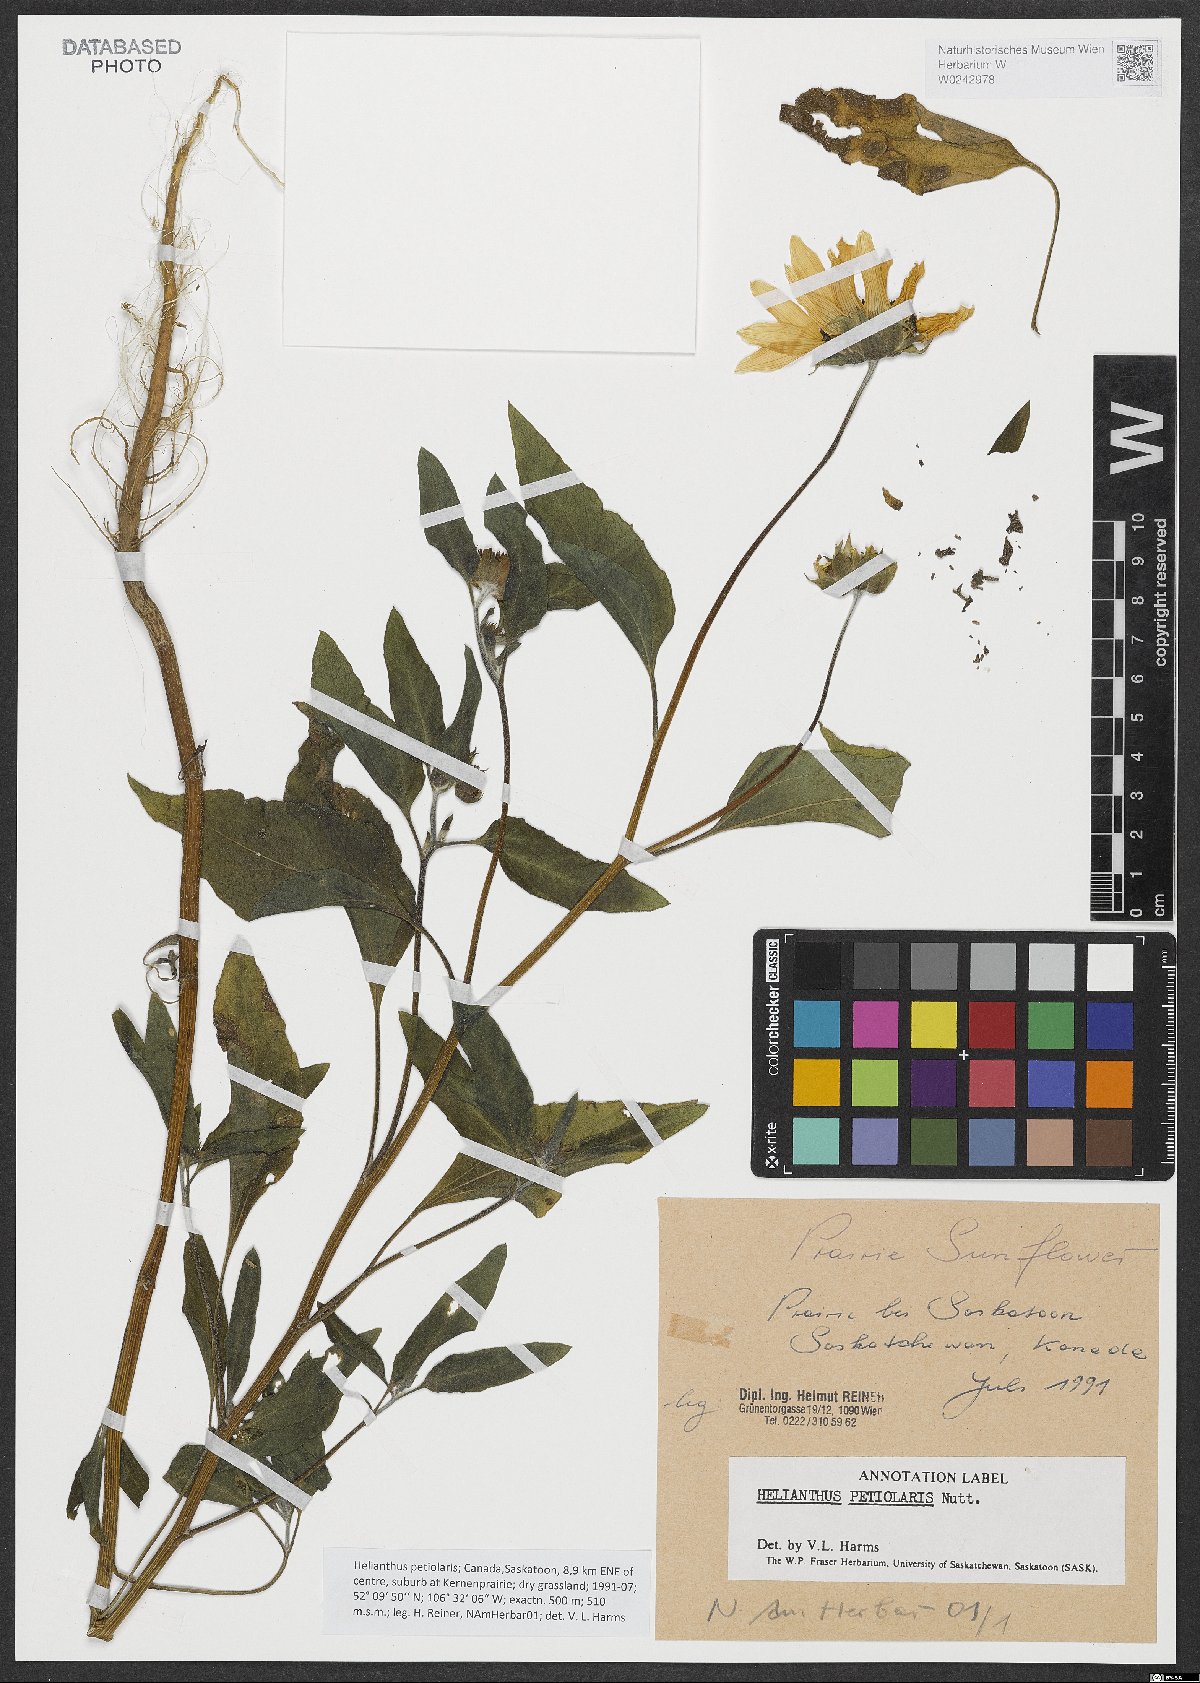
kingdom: Plantae
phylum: Tracheophyta
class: Magnoliopsida
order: Asterales
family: Asteraceae
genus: Helianthus
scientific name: Helianthus petiolaris
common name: Lesser sunflower
